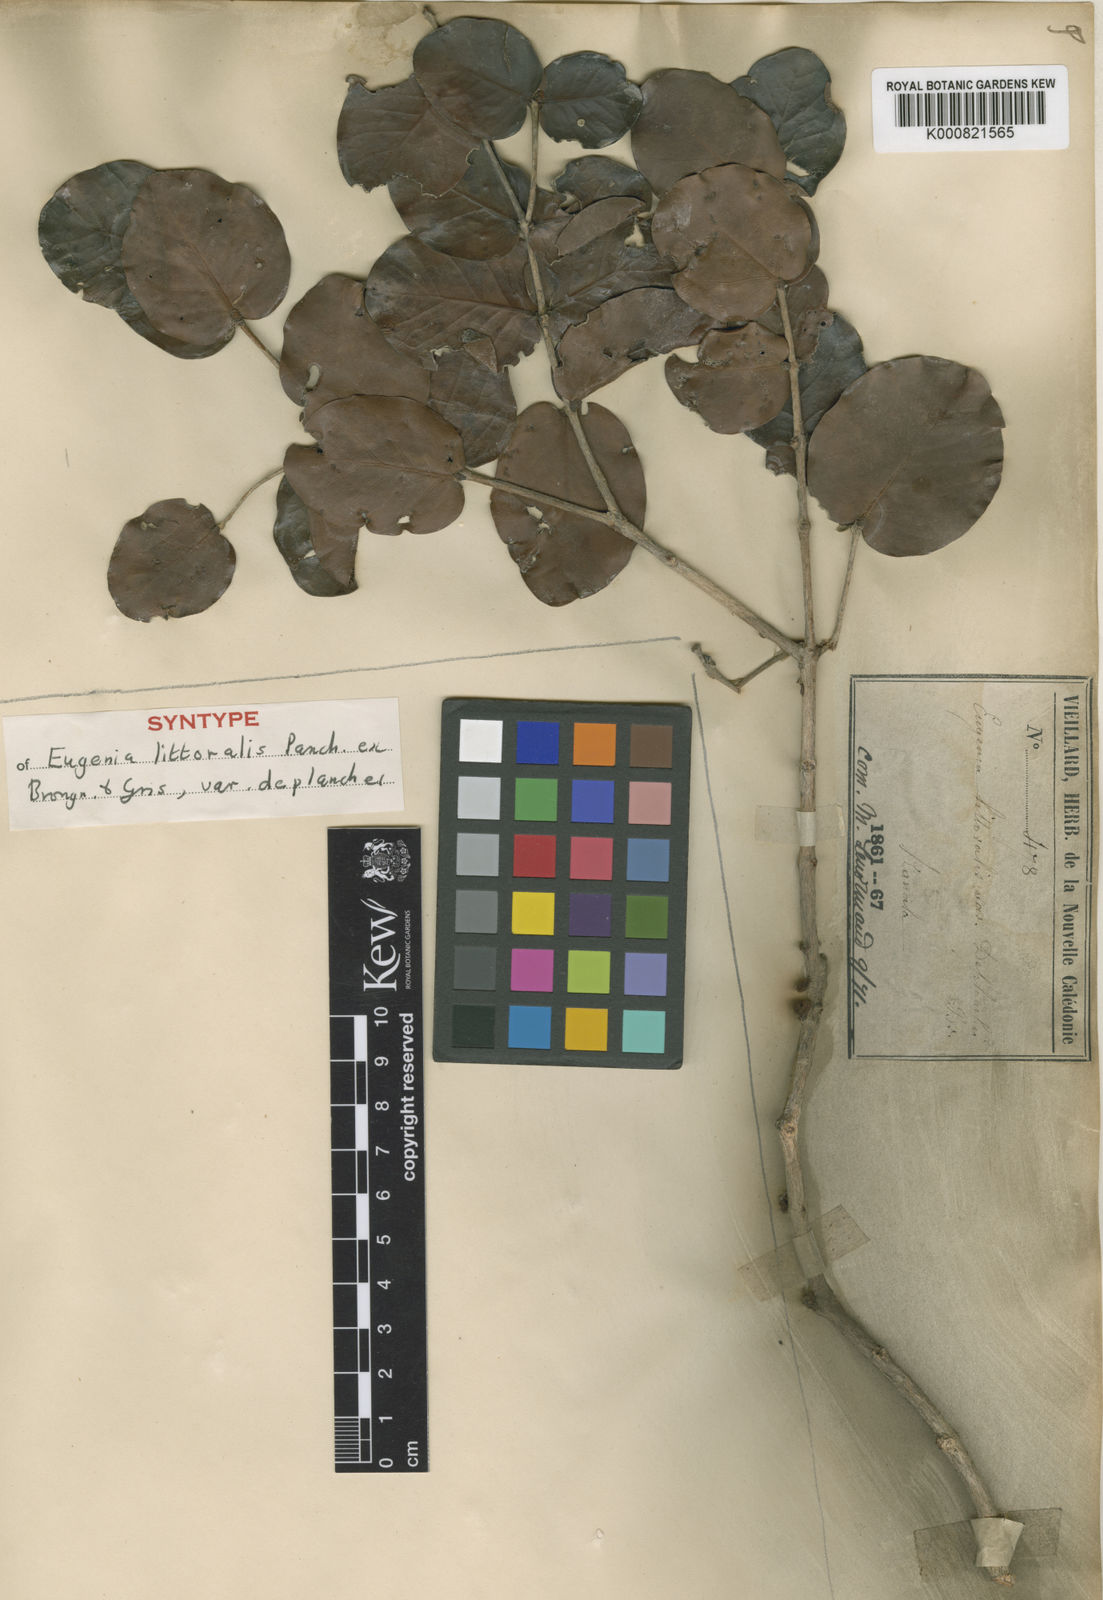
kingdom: Plantae
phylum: Tracheophyta
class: Magnoliopsida
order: Myrtales
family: Myrtaceae
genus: Eugenia
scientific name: Eugenia gacognei
